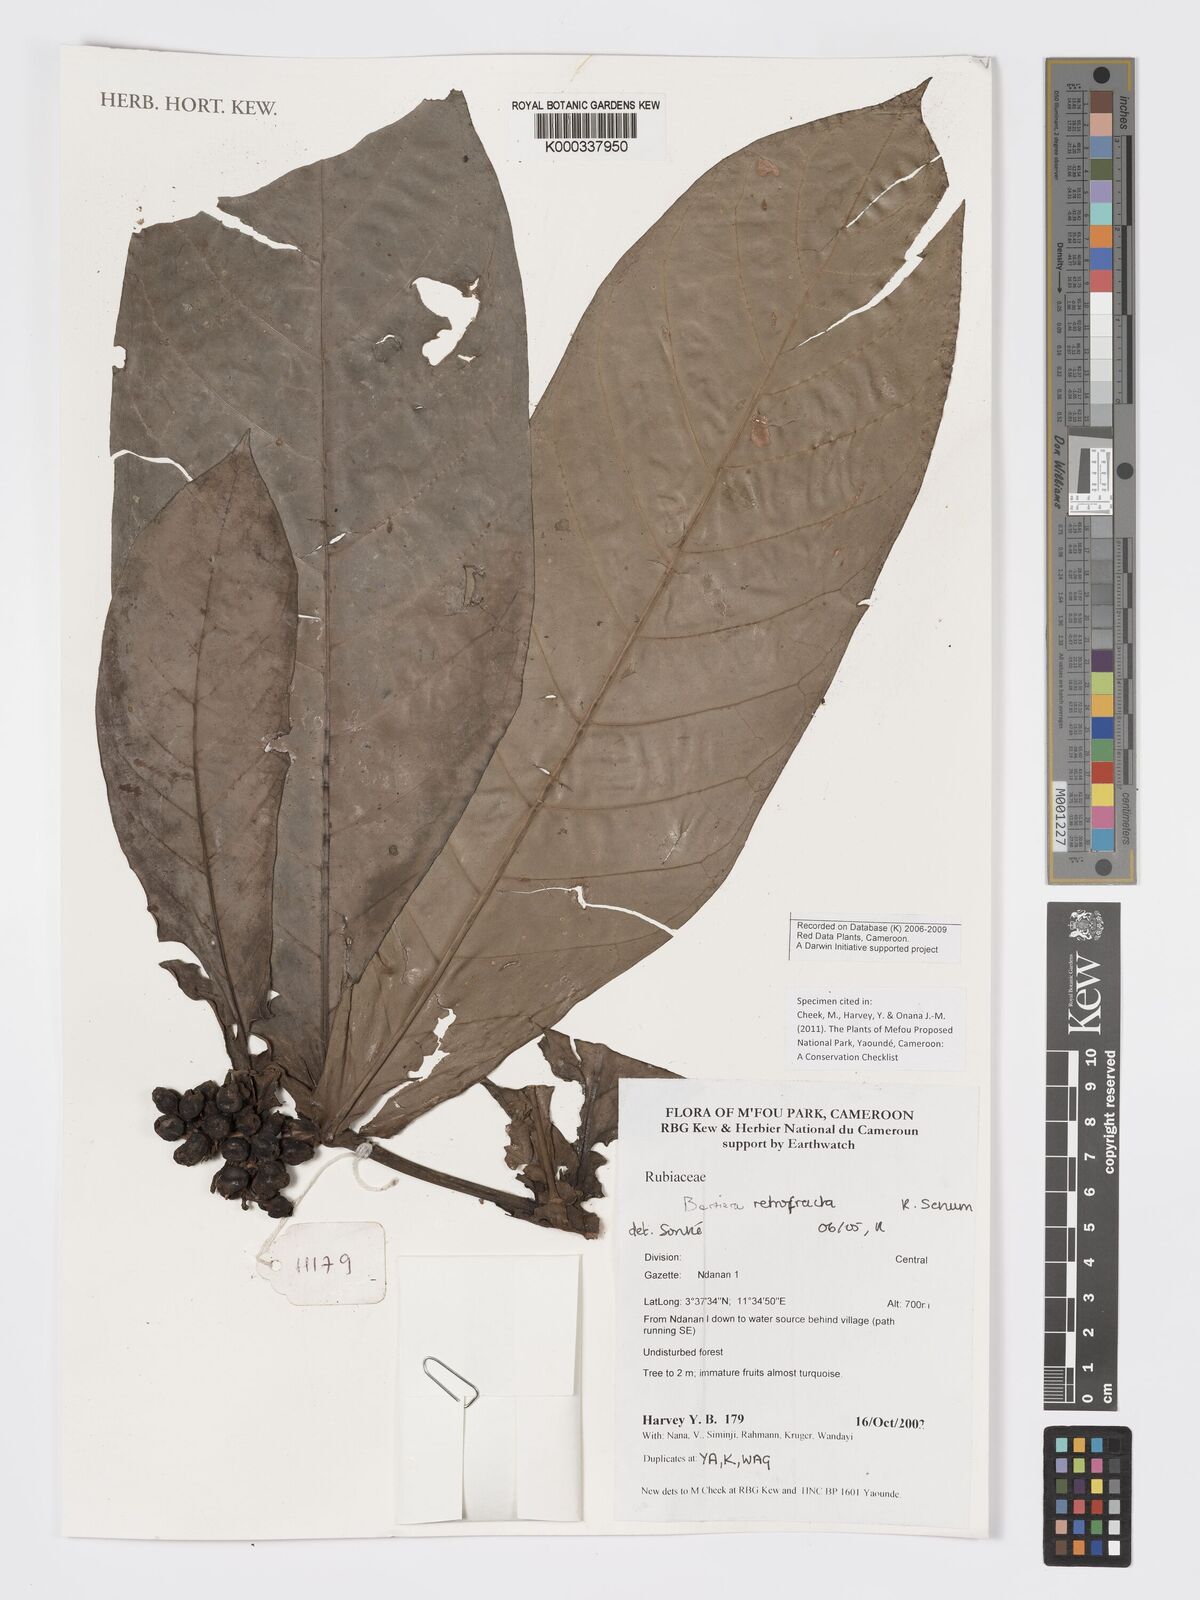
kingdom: Plantae
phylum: Tracheophyta
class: Magnoliopsida
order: Gentianales
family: Rubiaceae
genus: Bertiera
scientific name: Bertiera retrofracta
